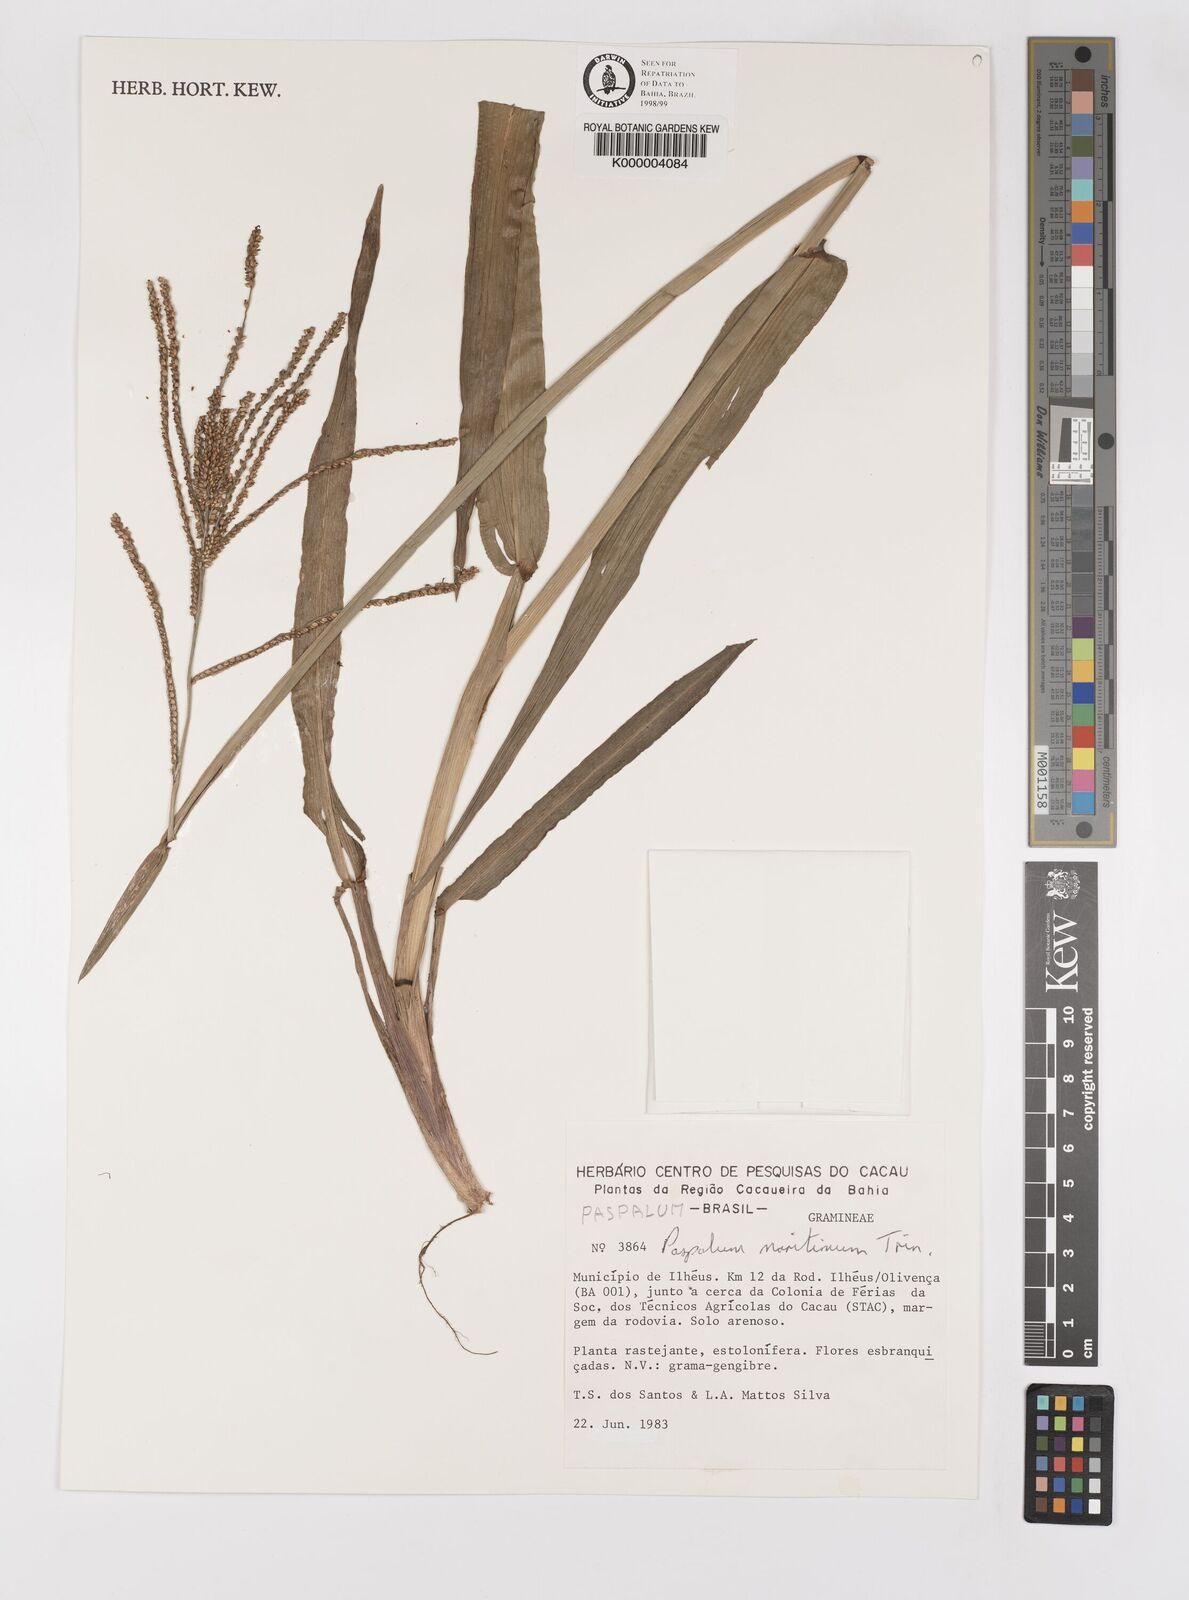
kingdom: Plantae
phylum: Tracheophyta
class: Liliopsida
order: Poales
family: Poaceae
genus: Paspalum
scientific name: Paspalum maritimum
